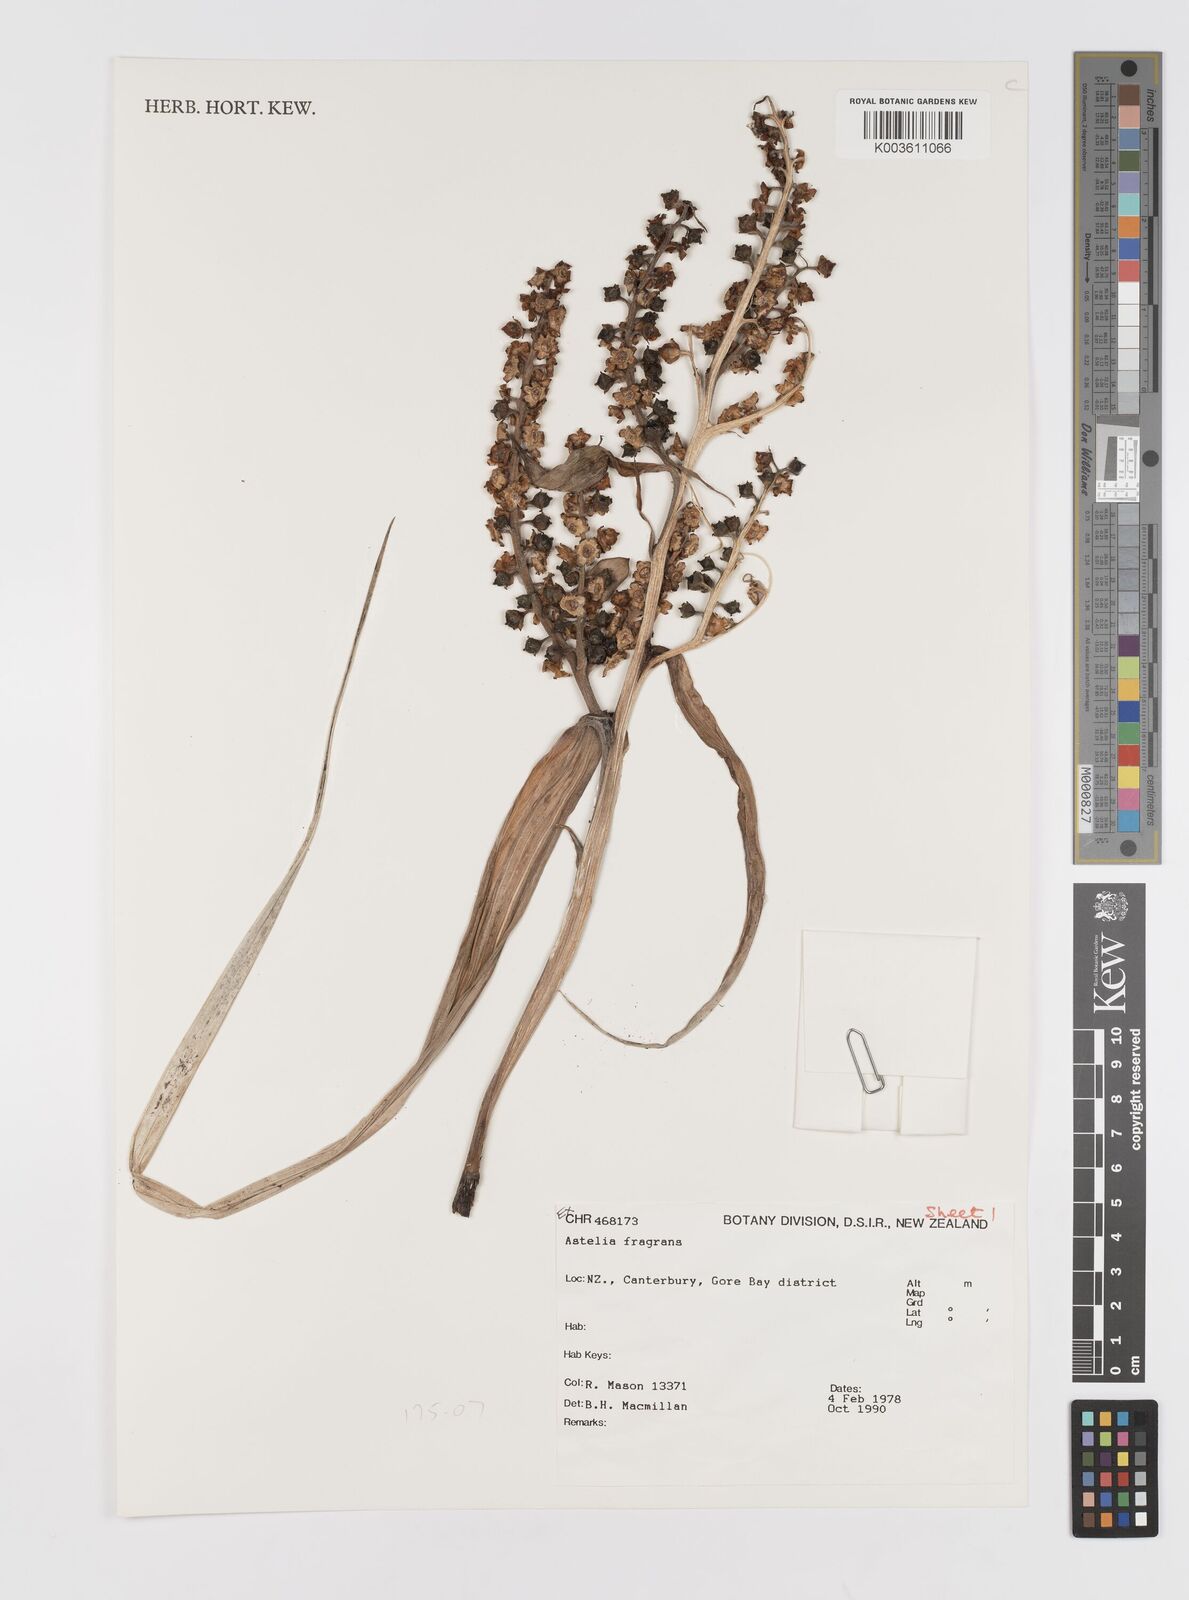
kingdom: Plantae
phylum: Tracheophyta
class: Liliopsida
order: Asparagales
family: Asteliaceae
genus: Astelia
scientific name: Astelia fragrans
